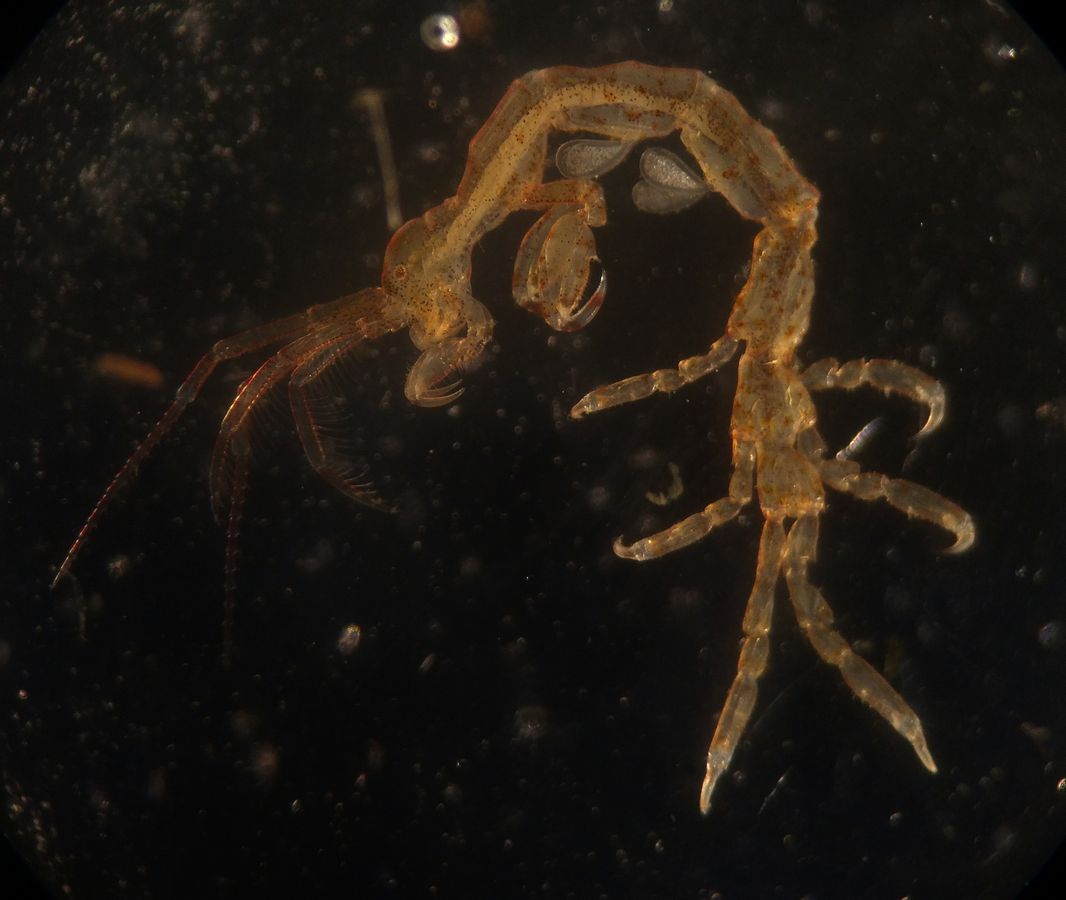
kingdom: Animalia
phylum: Arthropoda
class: Malacostraca
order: Amphipoda
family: Caprellidae
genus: Caprella
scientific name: Caprella septentrionalis
